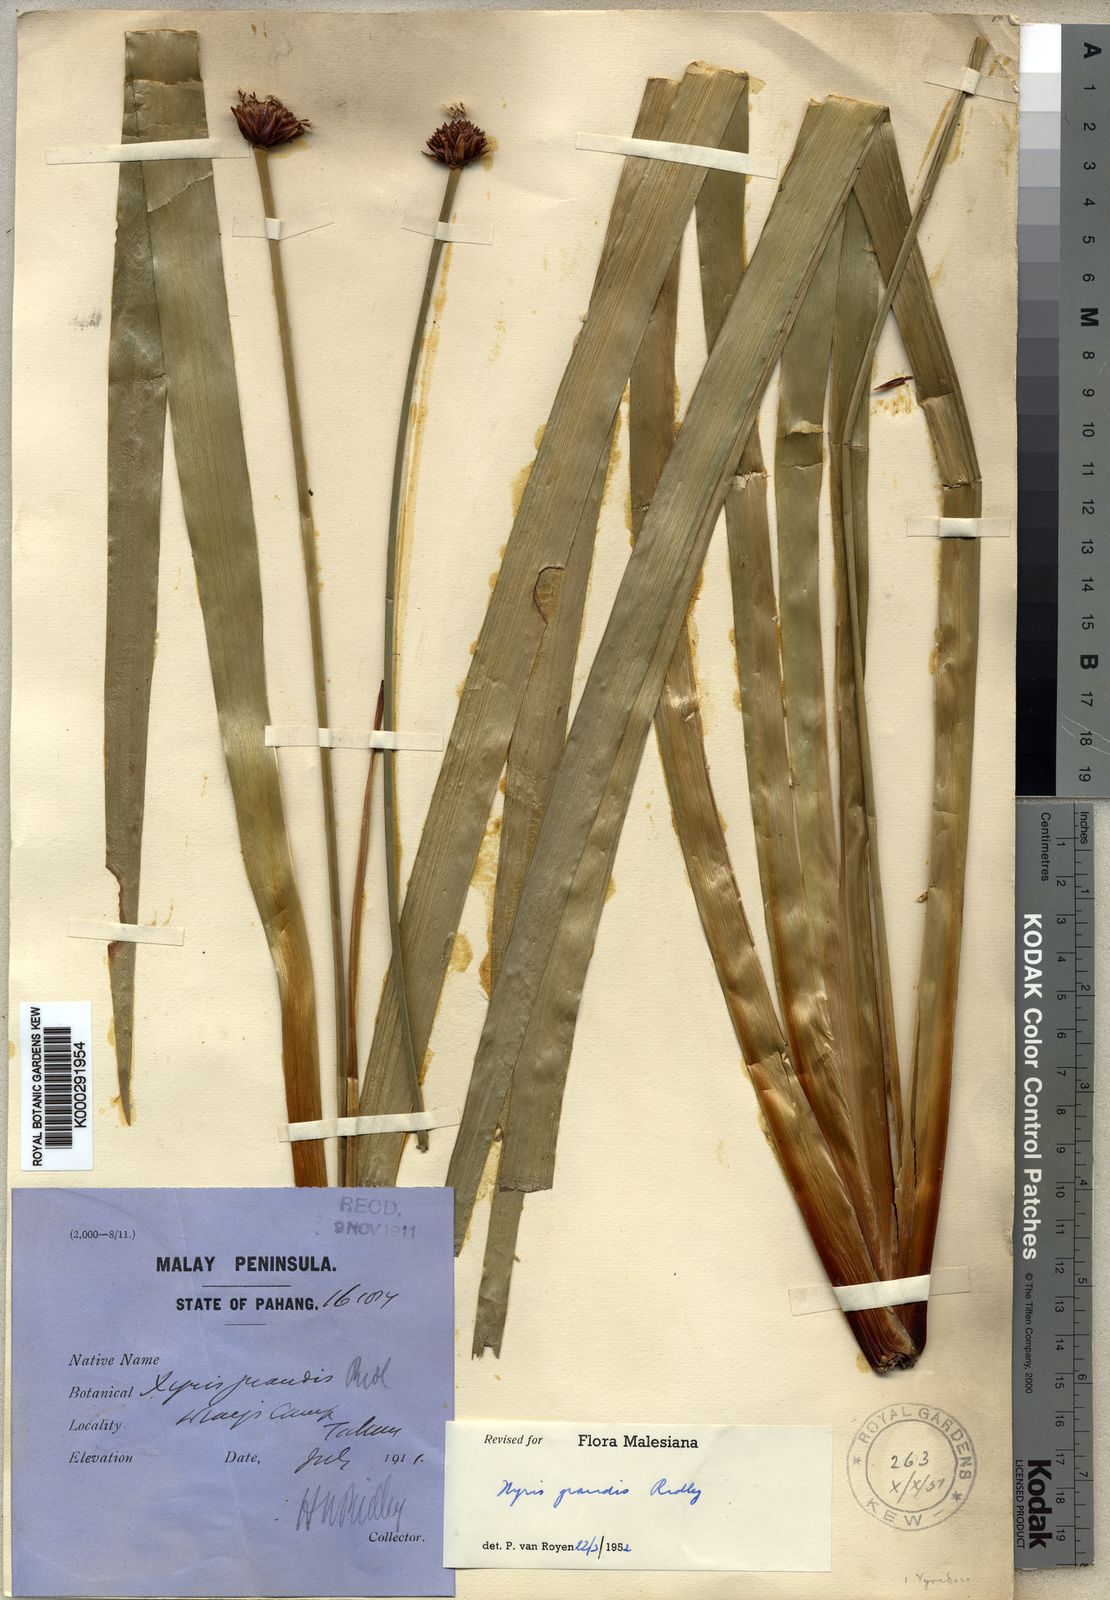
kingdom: Plantae
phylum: Tracheophyta
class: Liliopsida
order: Poales
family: Xyridaceae
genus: Xyris
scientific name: Xyris grandis
